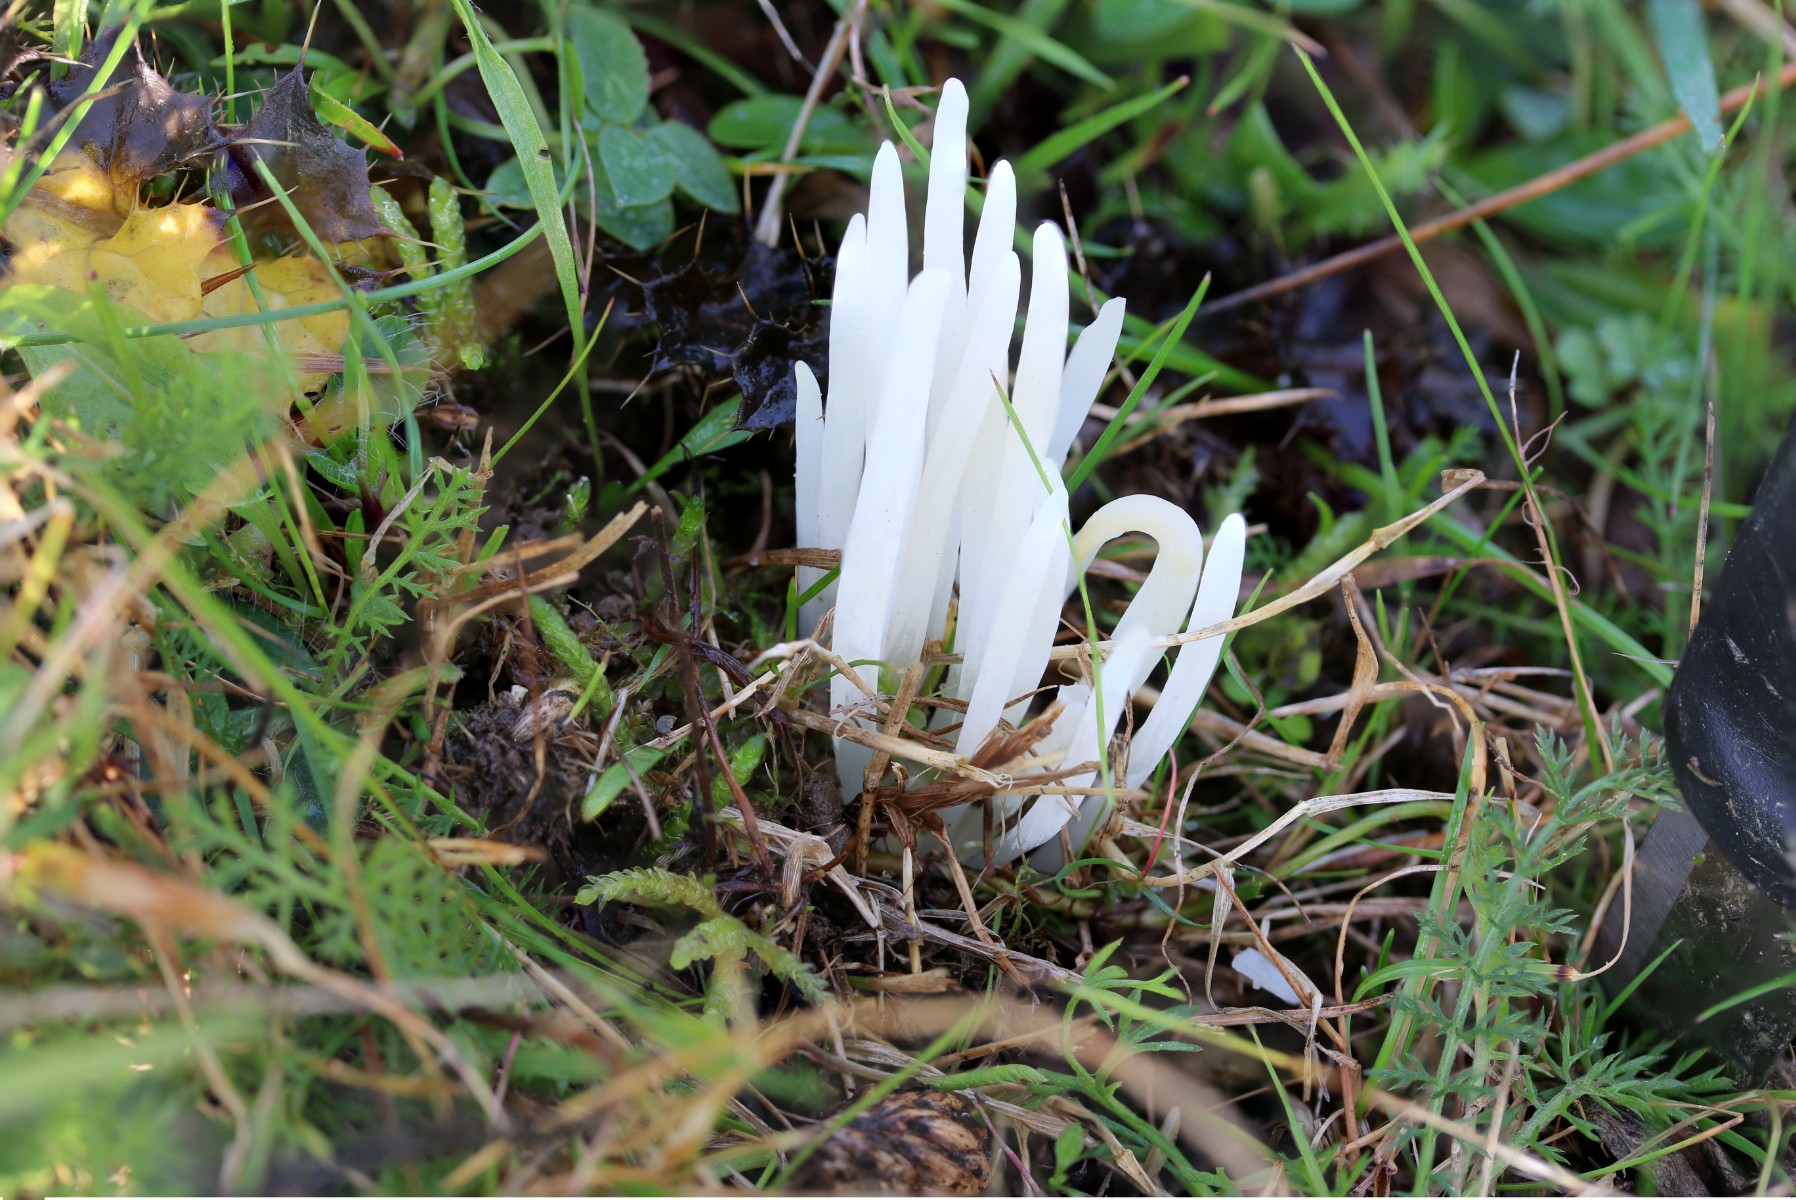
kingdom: Fungi
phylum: Basidiomycota
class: Agaricomycetes
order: Agaricales
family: Clavariaceae
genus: Clavaria
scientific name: Clavaria falcata
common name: hvid køllesvamp
